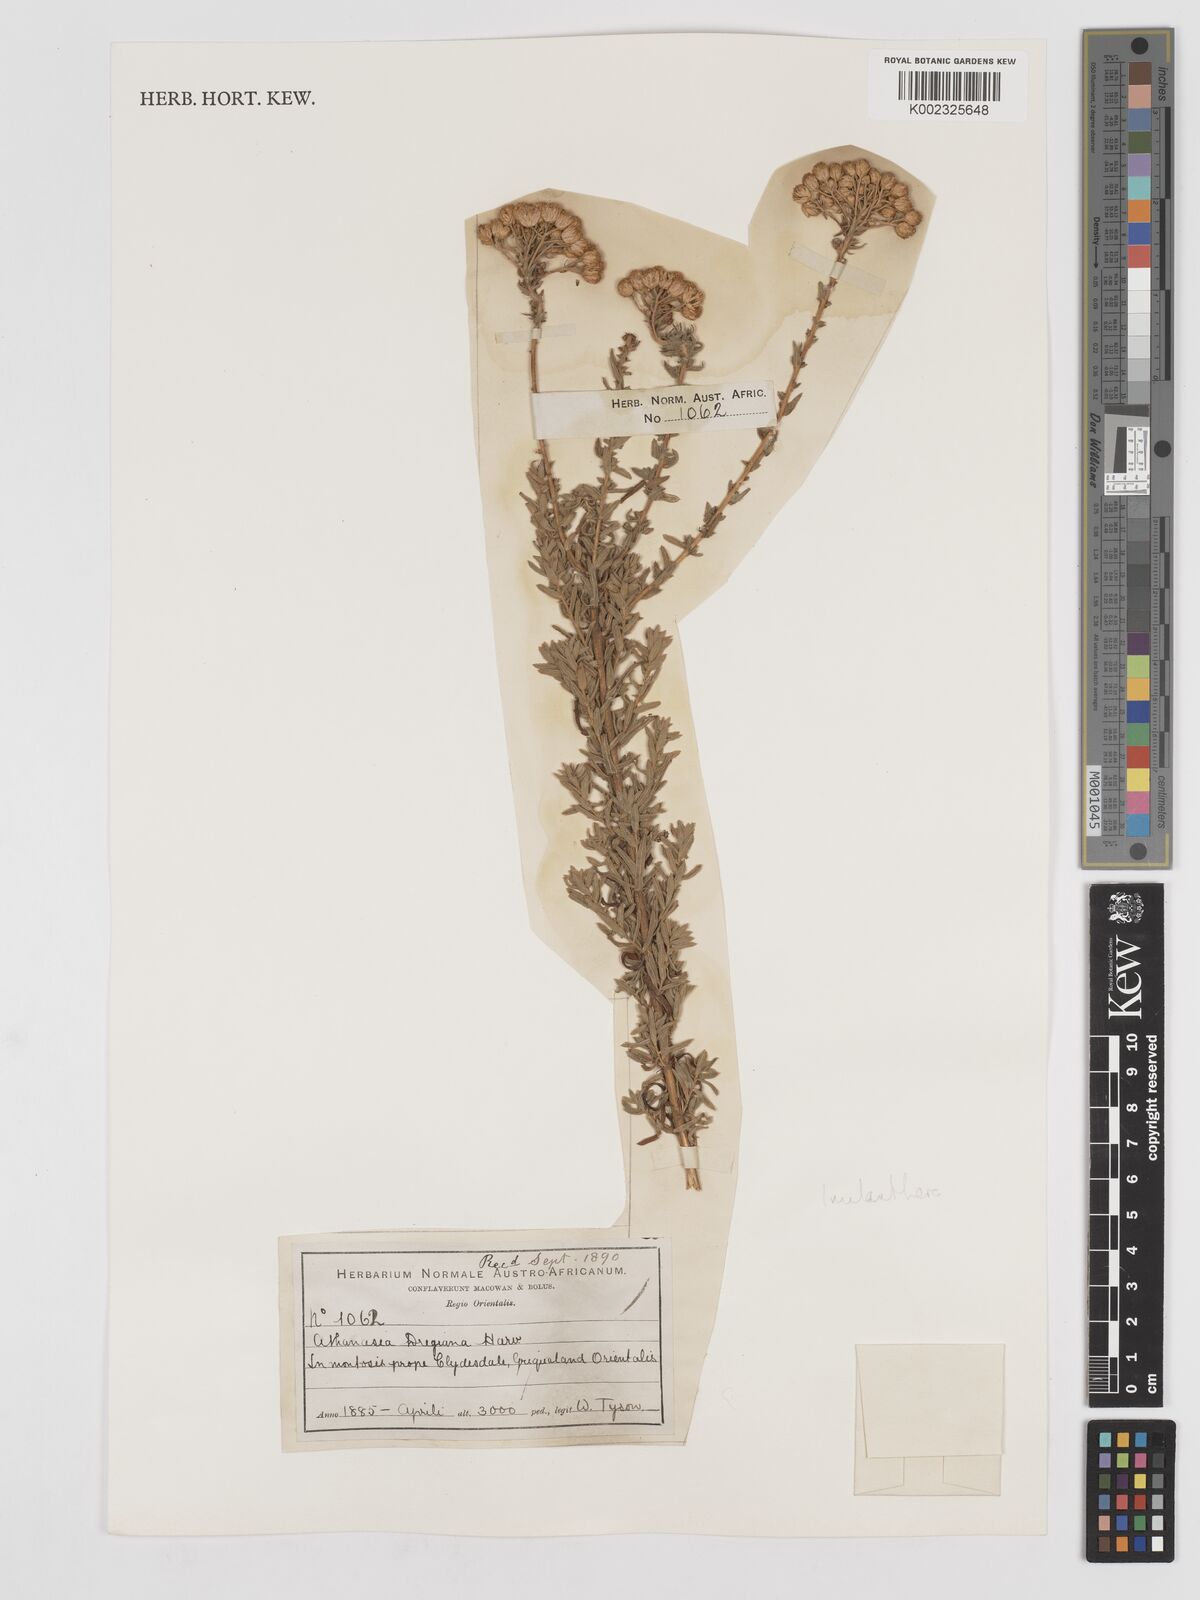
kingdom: Plantae
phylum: Tracheophyta
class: Magnoliopsida
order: Asterales
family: Asteraceae
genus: Inulanthera
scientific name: Inulanthera dregeana
